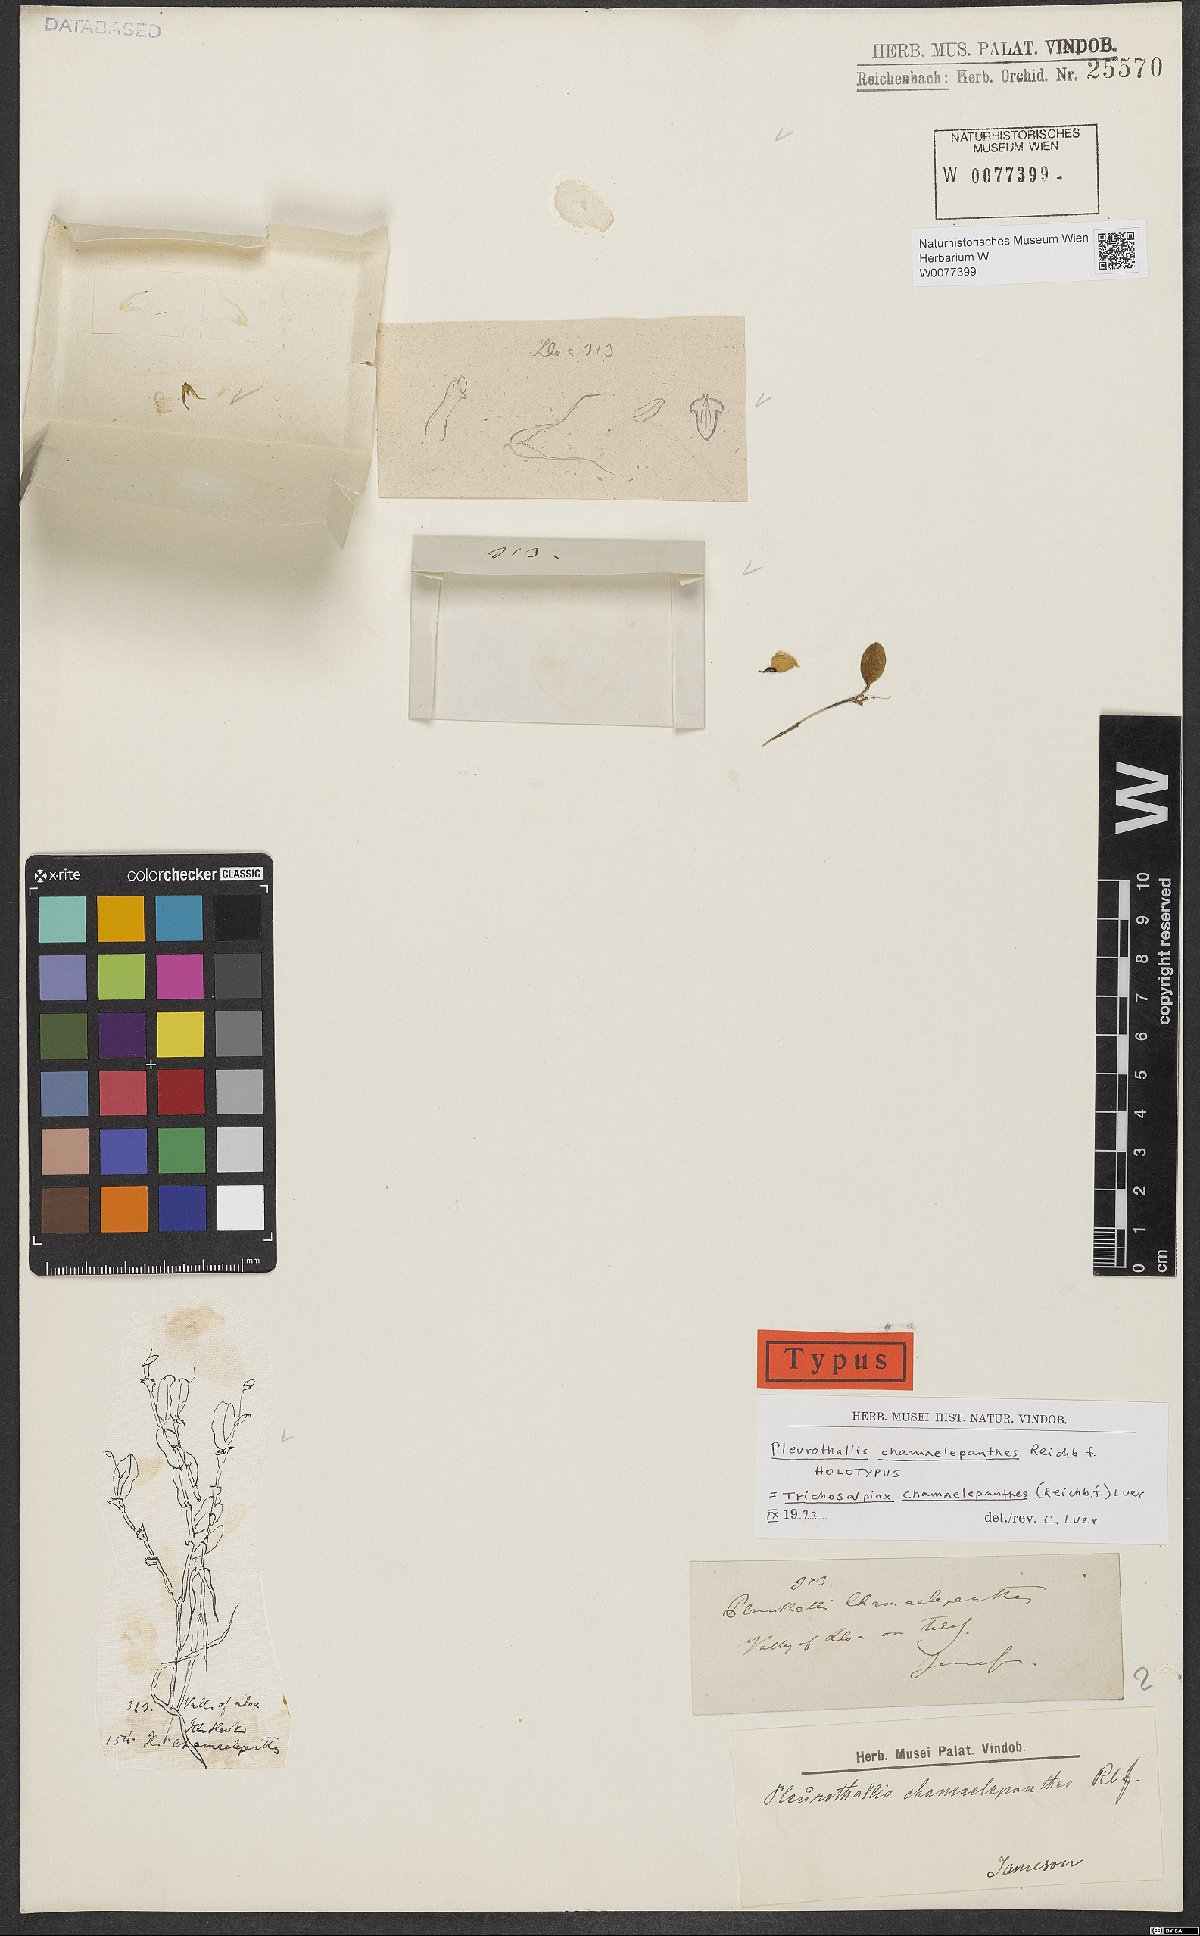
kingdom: Plantae
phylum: Tracheophyta
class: Liliopsida
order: Asparagales
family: Orchidaceae
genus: Gravendeelia
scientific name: Gravendeelia chamaelepanthes
